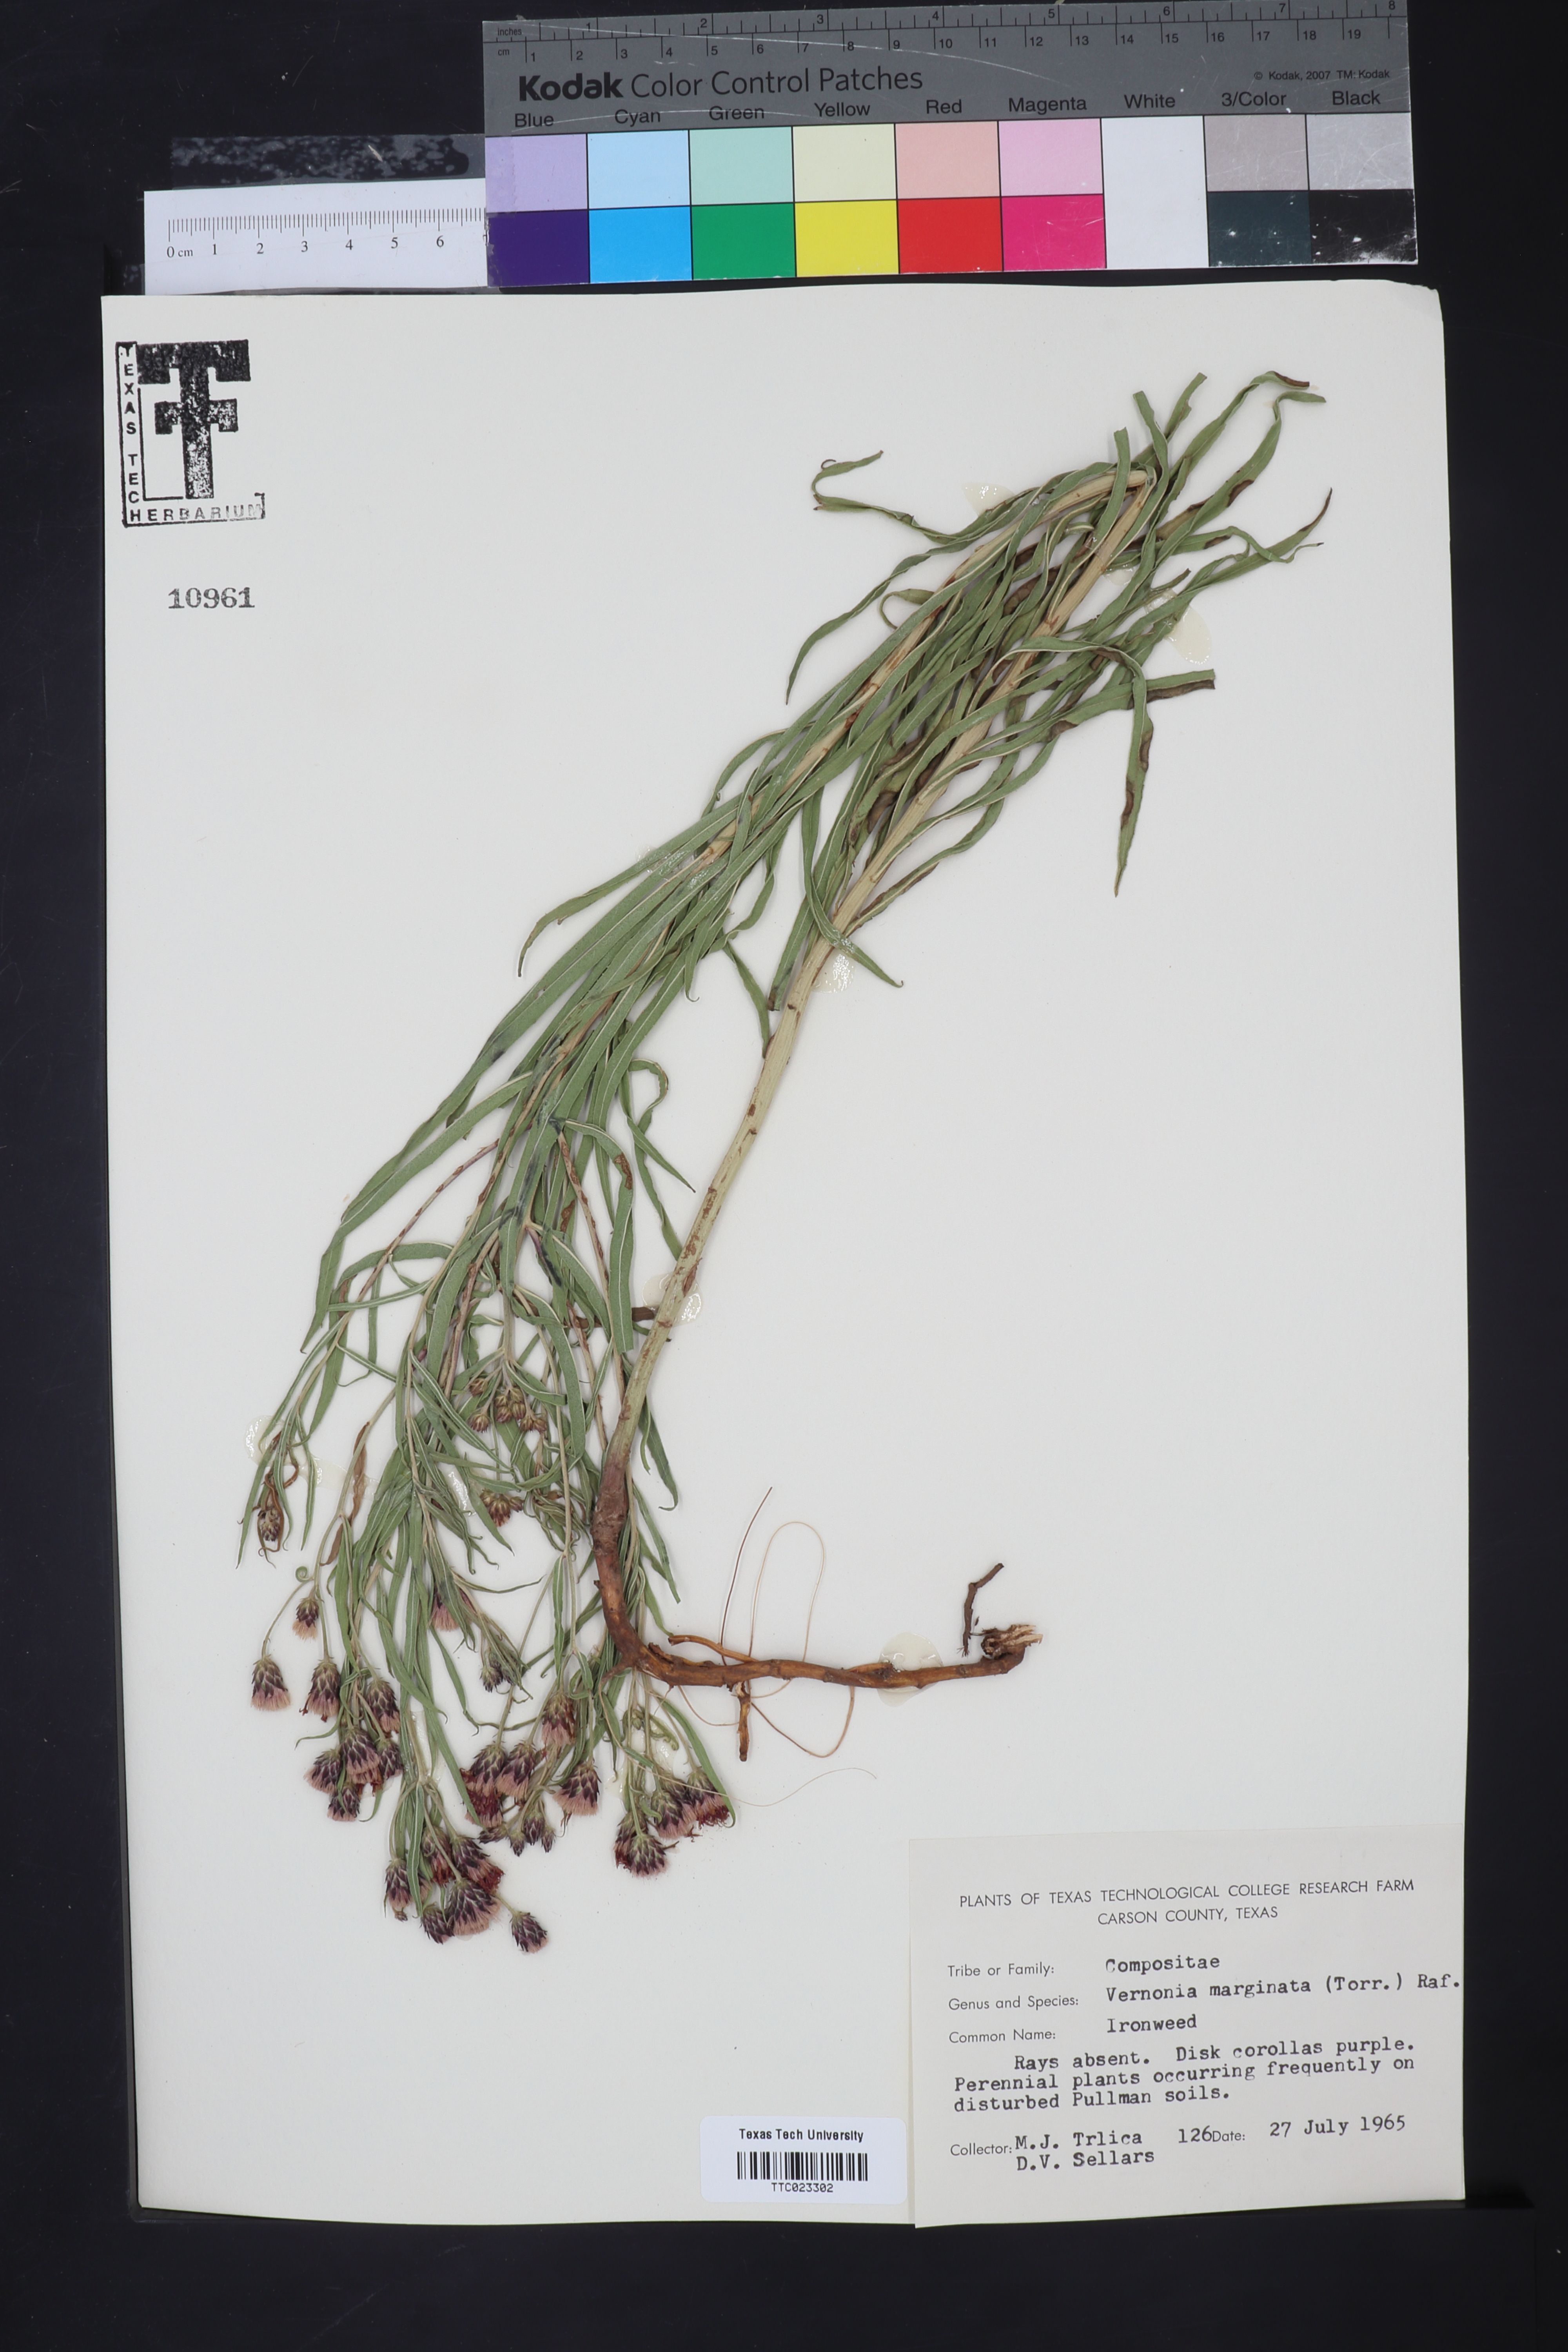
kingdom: Plantae
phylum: Tracheophyta
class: Magnoliopsida
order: Asterales
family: Asteraceae
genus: Vernonia
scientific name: Vernonia marginata
